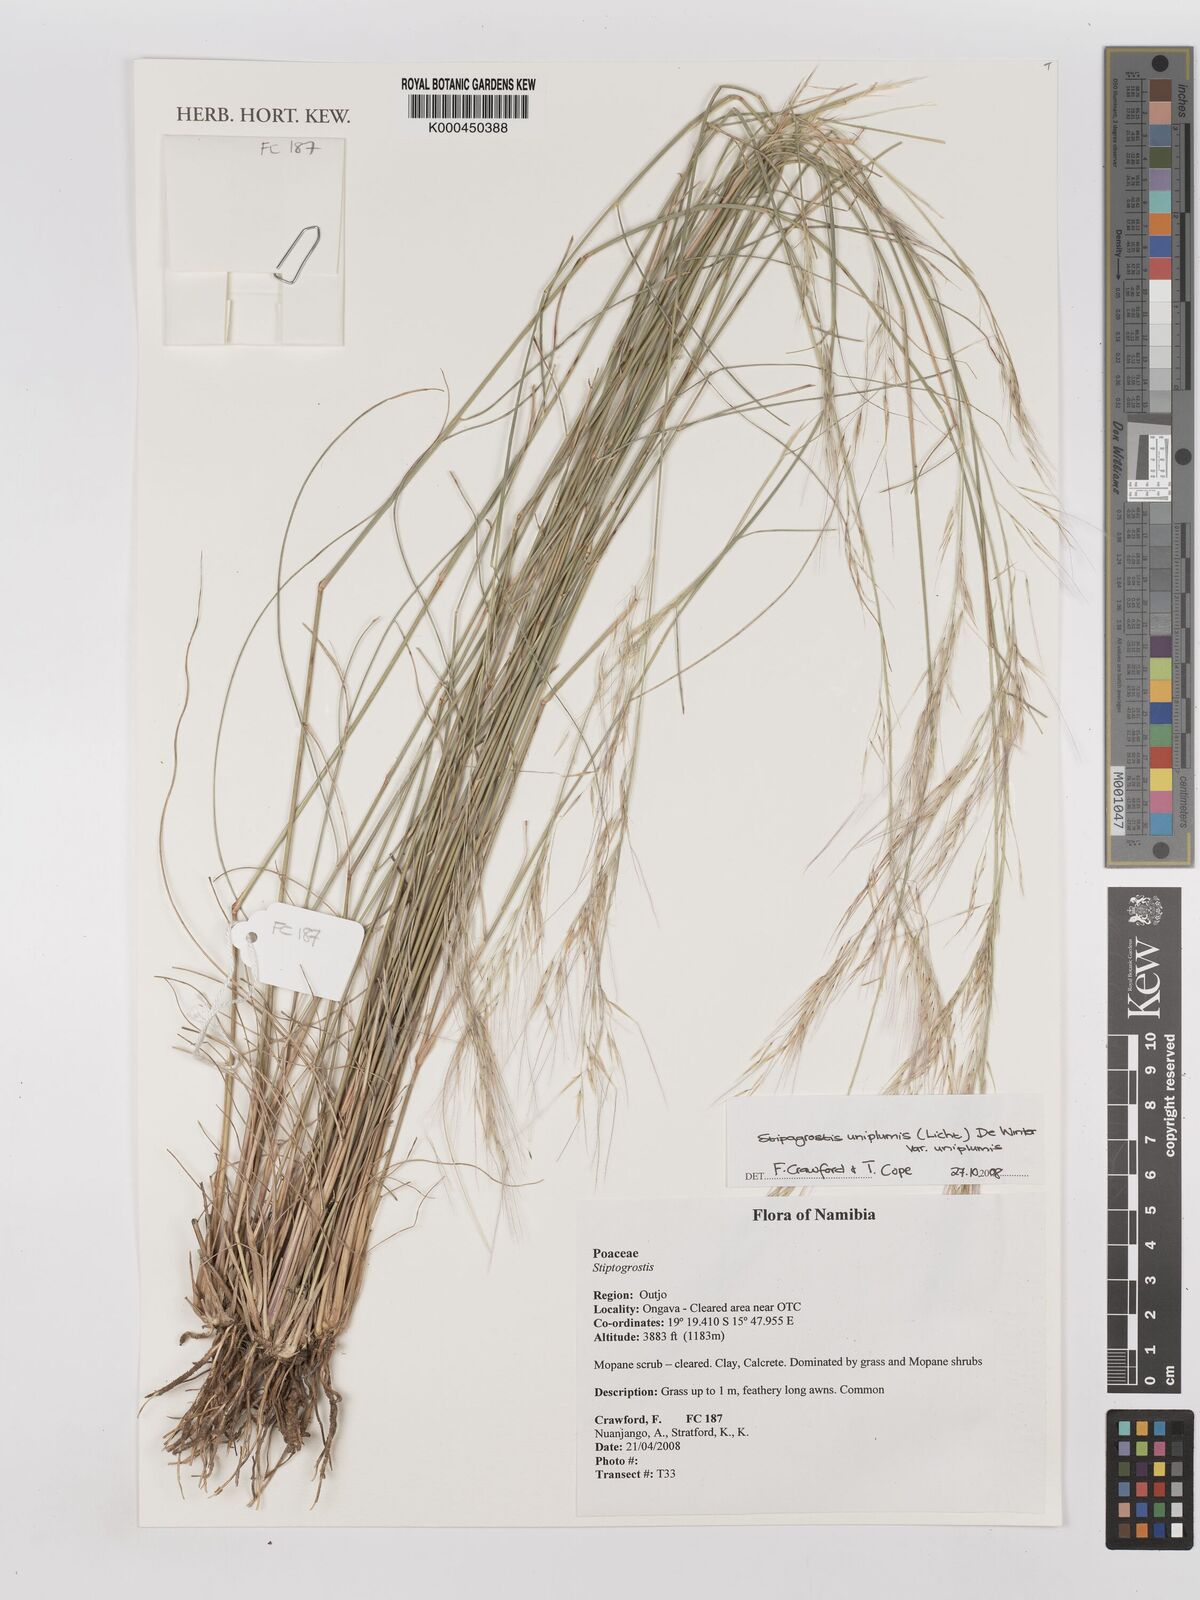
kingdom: Plantae
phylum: Tracheophyta
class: Liliopsida
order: Poales
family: Poaceae
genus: Stipagrostis
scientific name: Stipagrostis uniplumis
